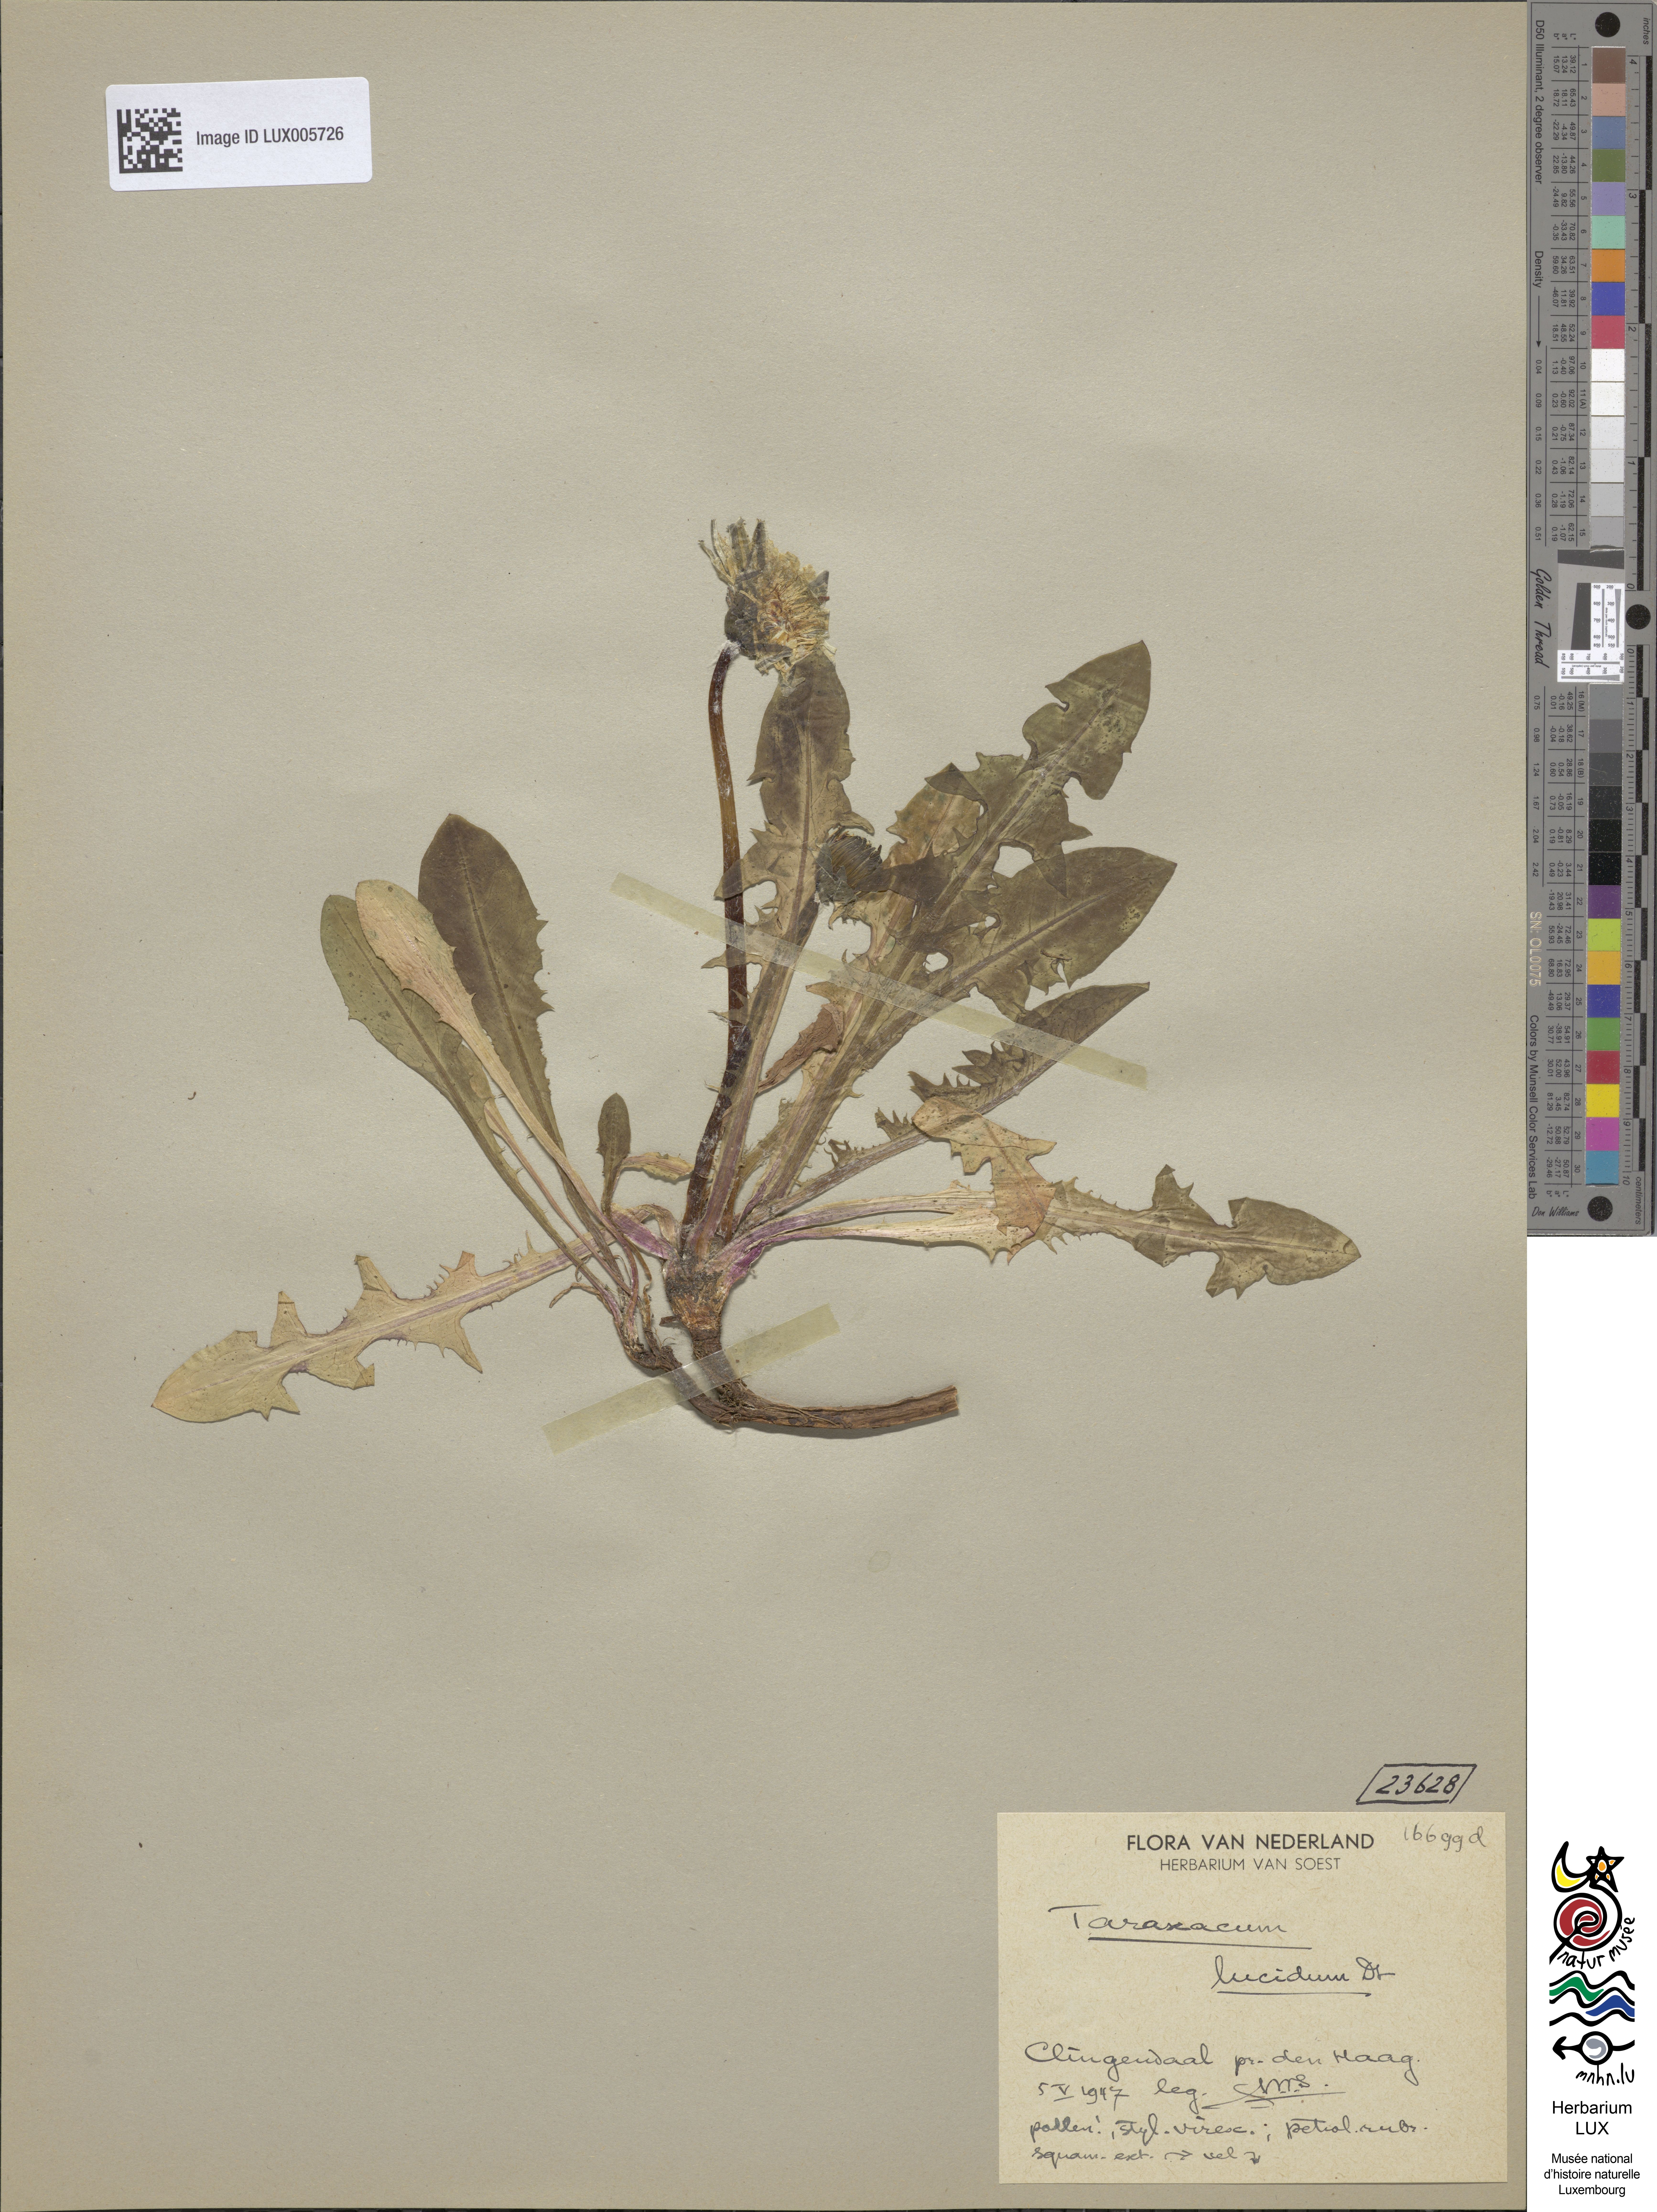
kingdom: Plantae
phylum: Tracheophyta
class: Magnoliopsida
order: Asterales
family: Asteraceae
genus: Taraxacum
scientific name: Taraxacum lucidum
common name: Large-bracted dandelion
